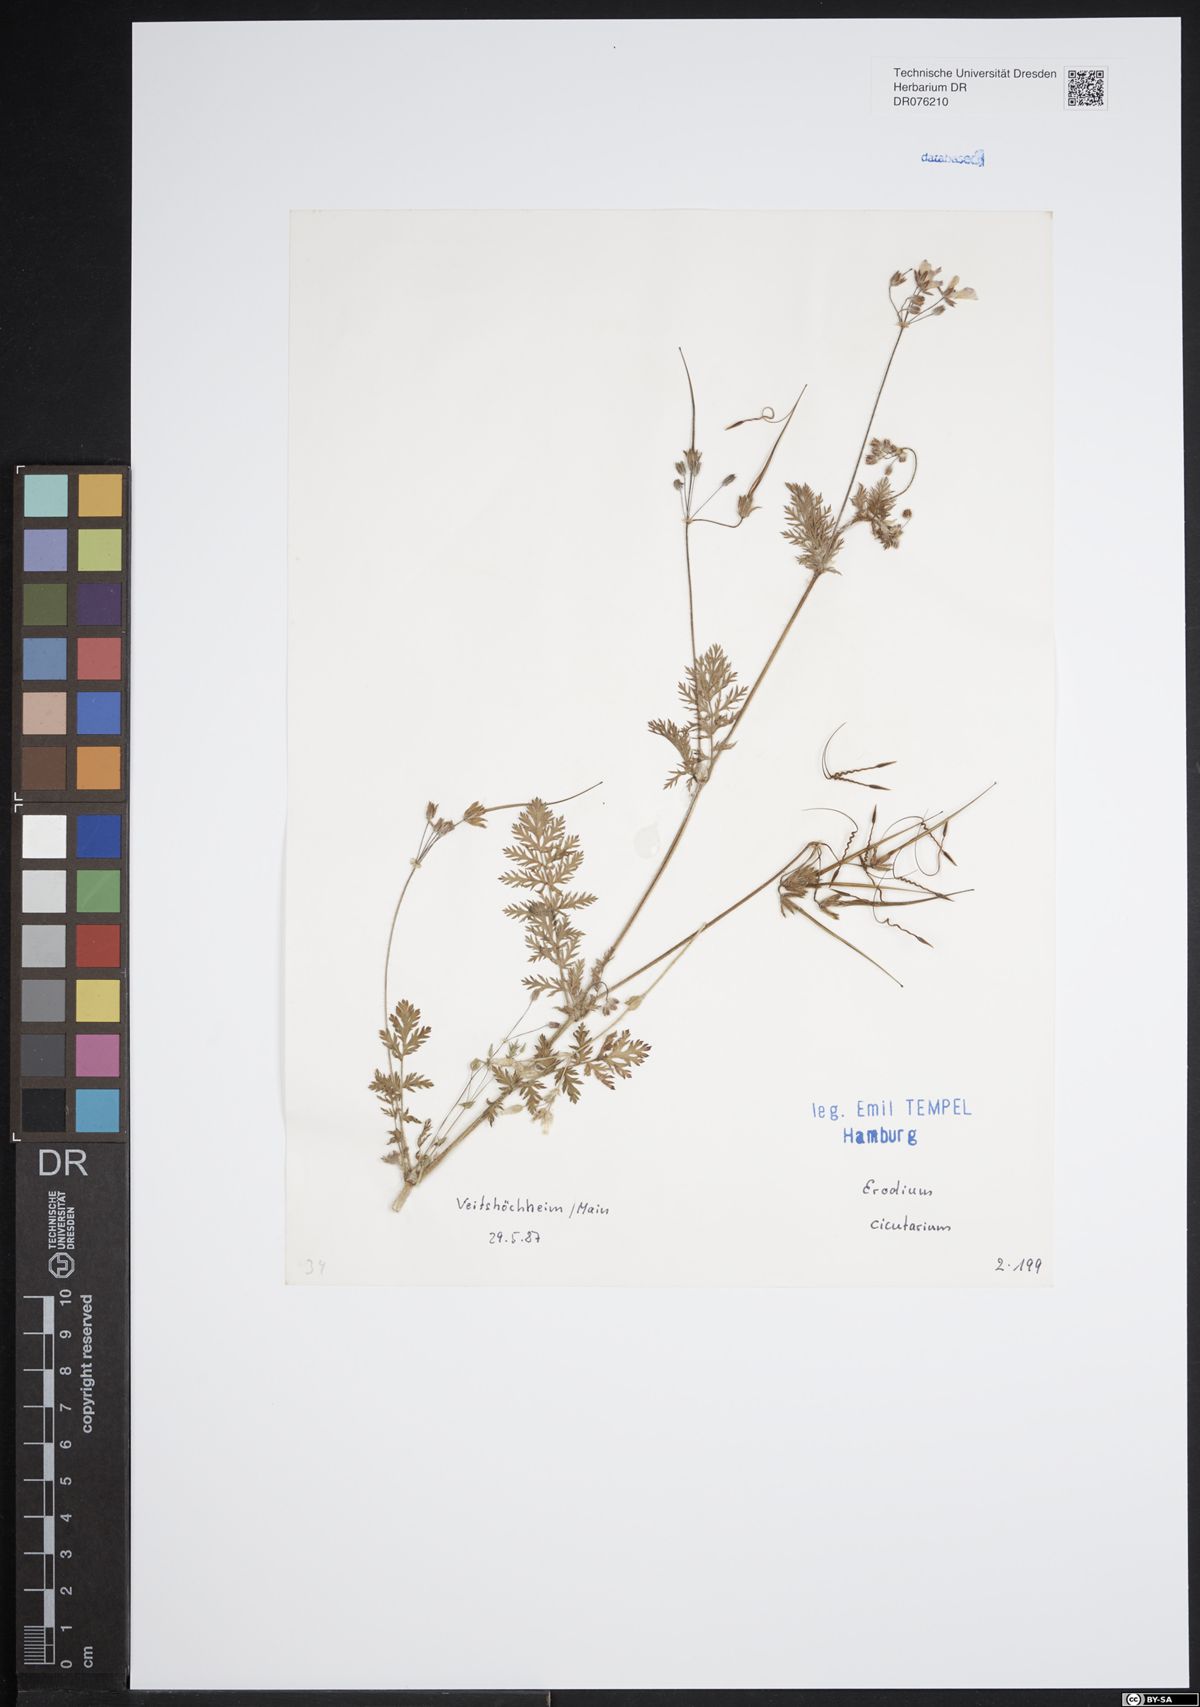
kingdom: Plantae
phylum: Tracheophyta
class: Magnoliopsida
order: Geraniales
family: Geraniaceae
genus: Erodium
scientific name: Erodium cicutarium
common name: Common stork's-bill
